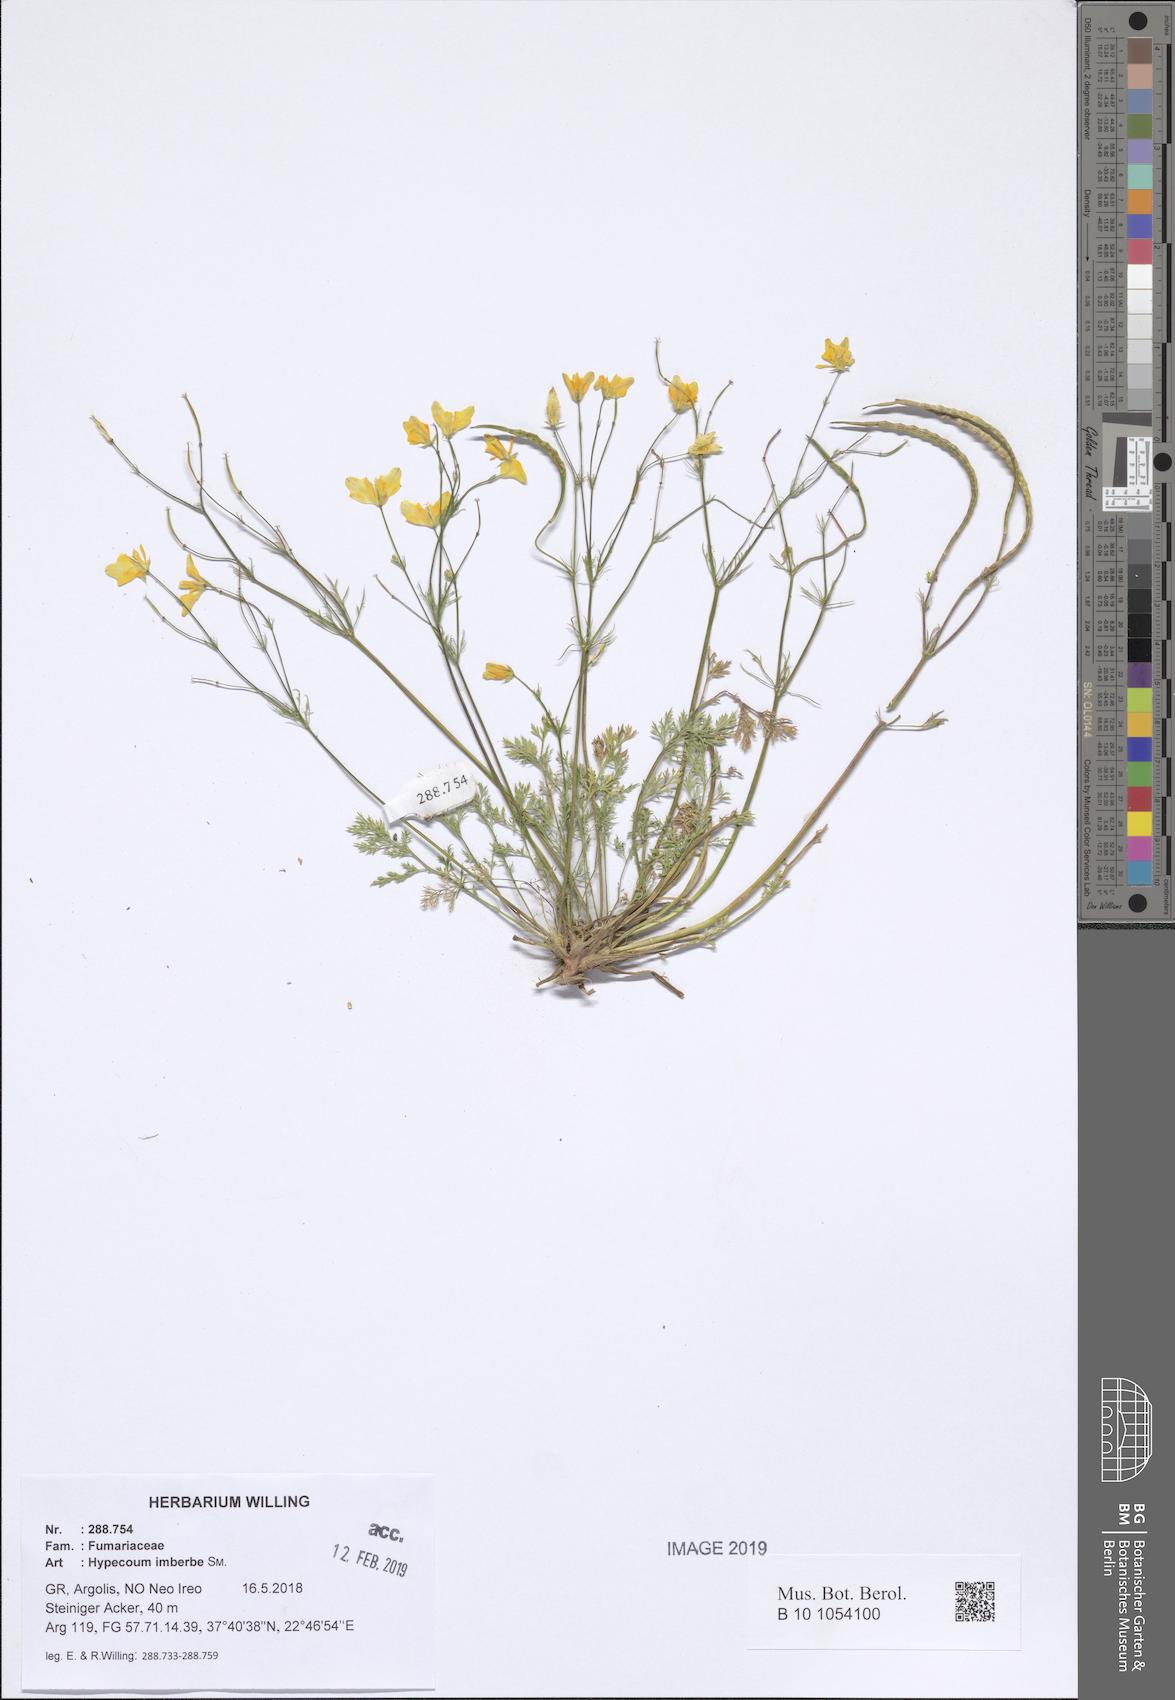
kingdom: Plantae
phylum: Tracheophyta
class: Magnoliopsida
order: Ranunculales
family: Papaveraceae
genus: Hypecoum
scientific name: Hypecoum imberbe
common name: Sicklefruit hypecoum
